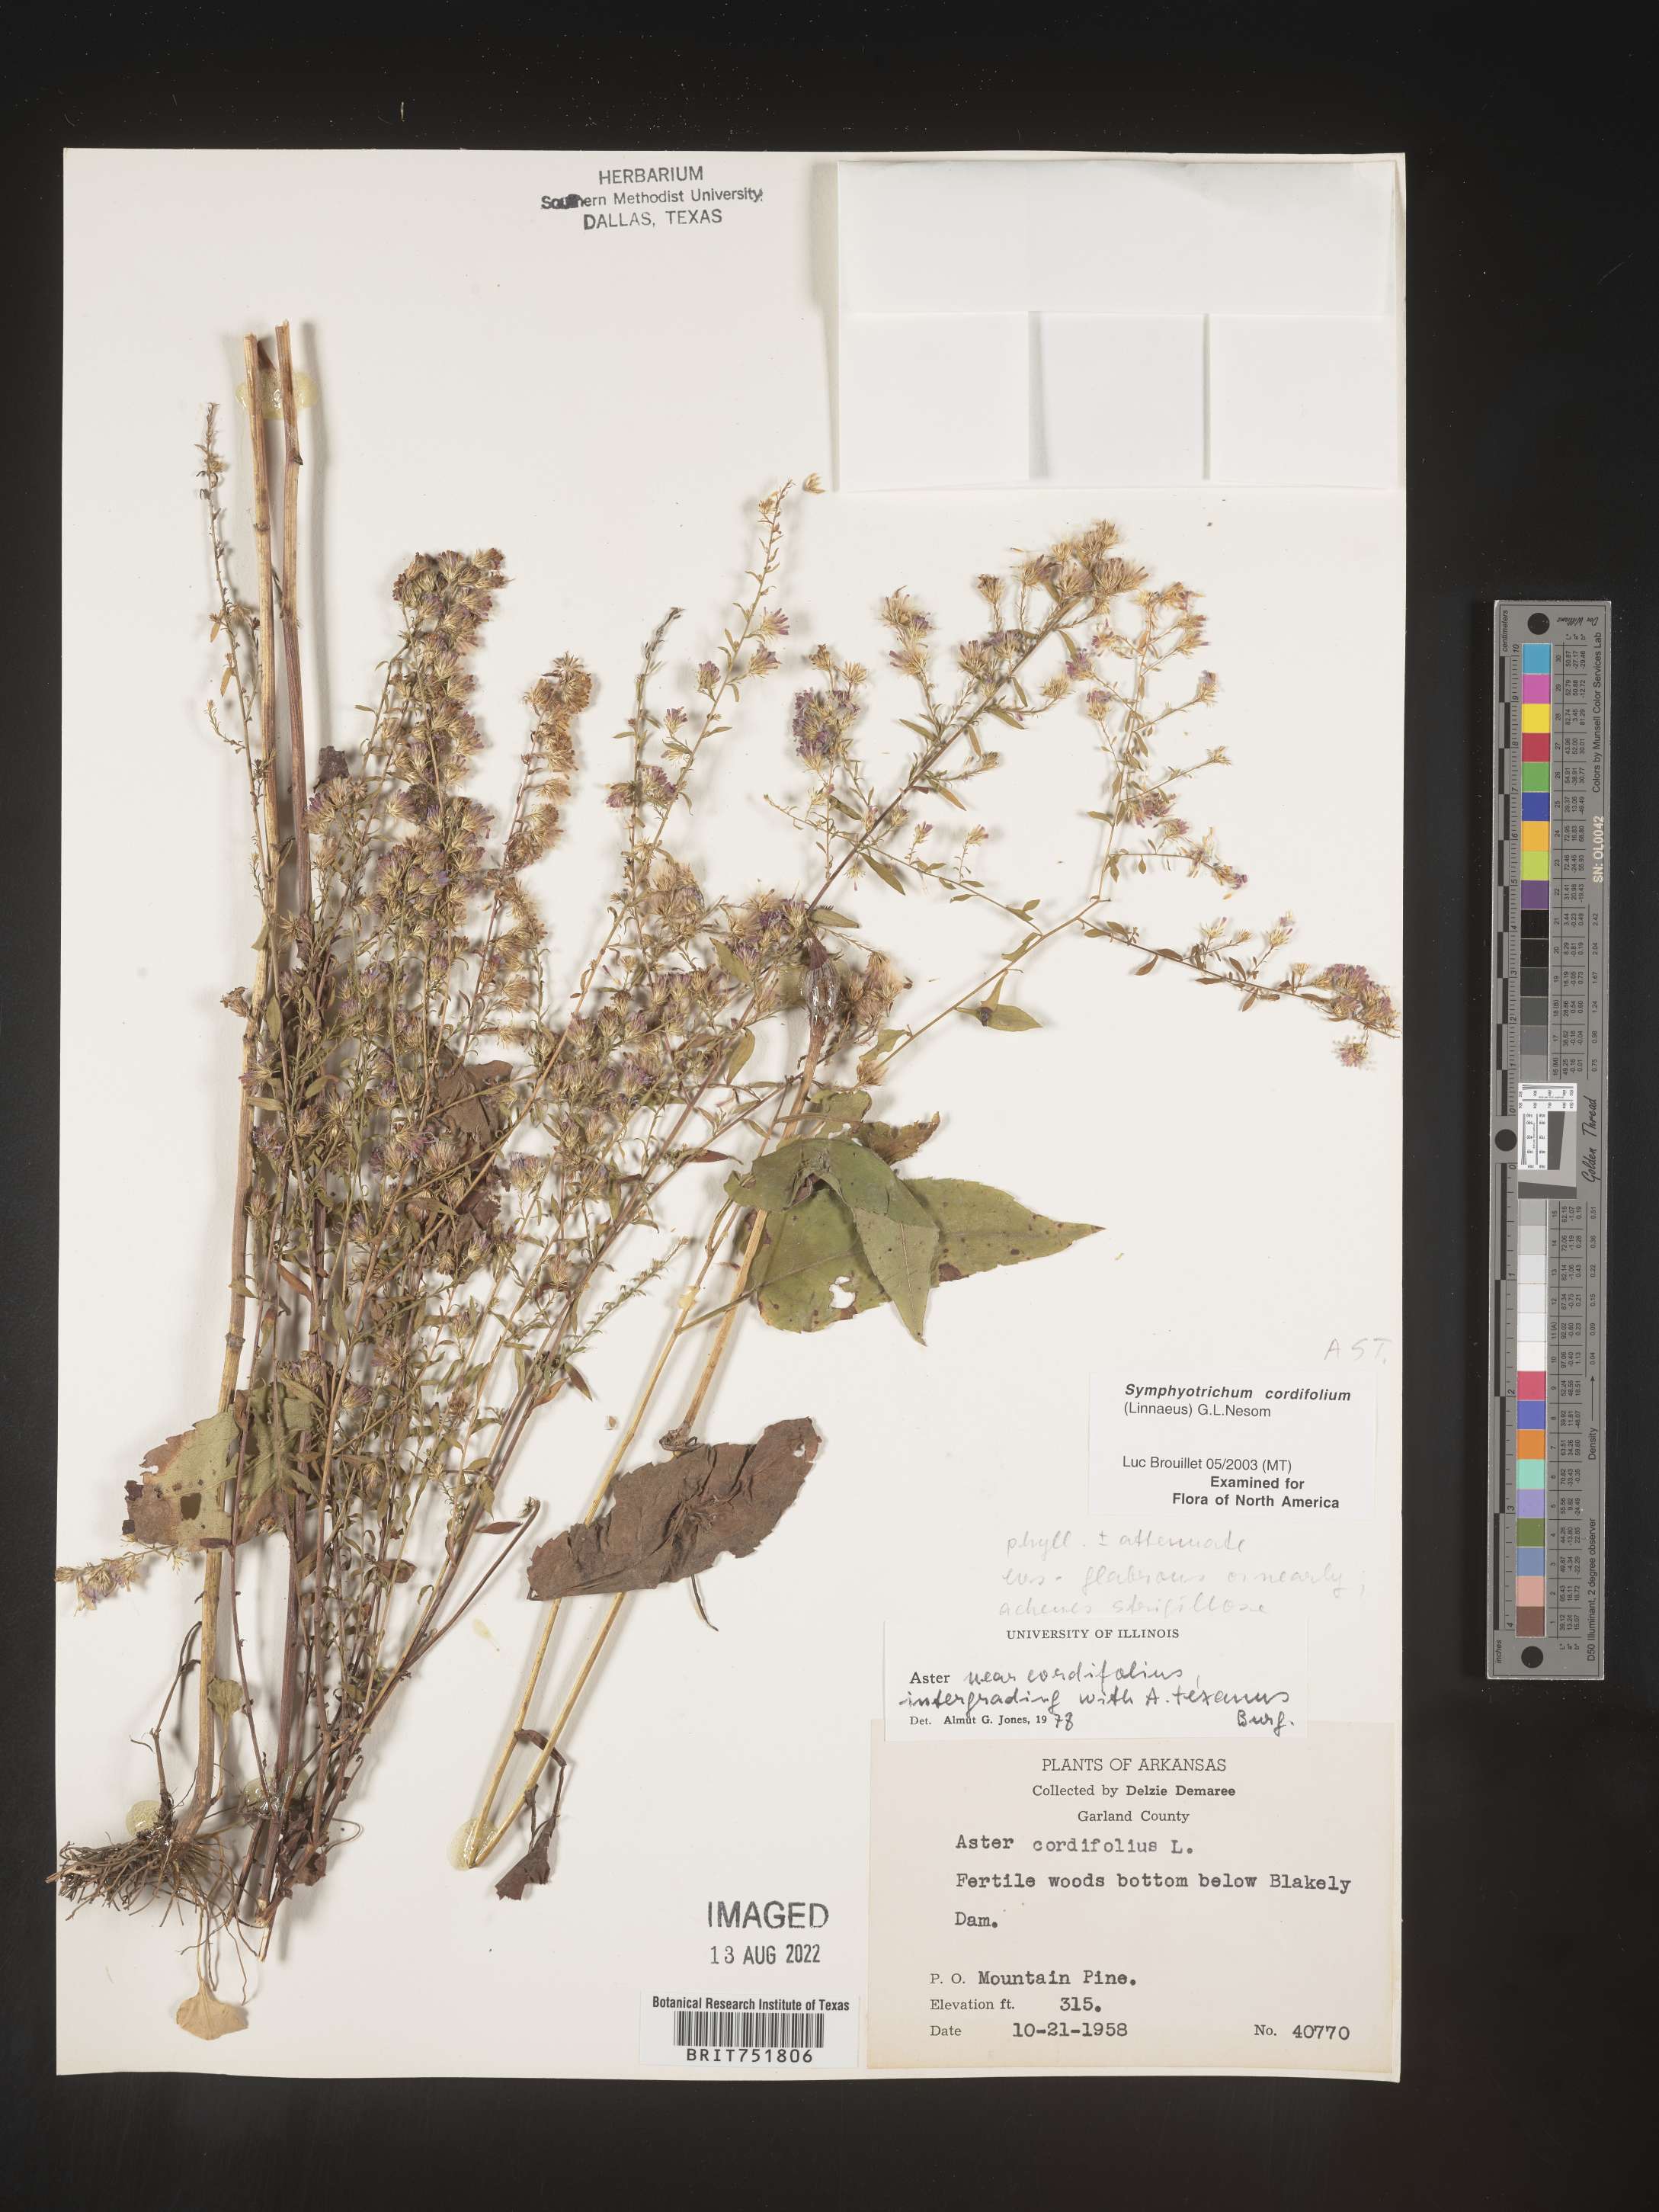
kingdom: Plantae
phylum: Tracheophyta
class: Magnoliopsida
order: Asterales
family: Asteraceae
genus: Symphyotrichum
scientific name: Symphyotrichum drummondii
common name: Drummond's aster
